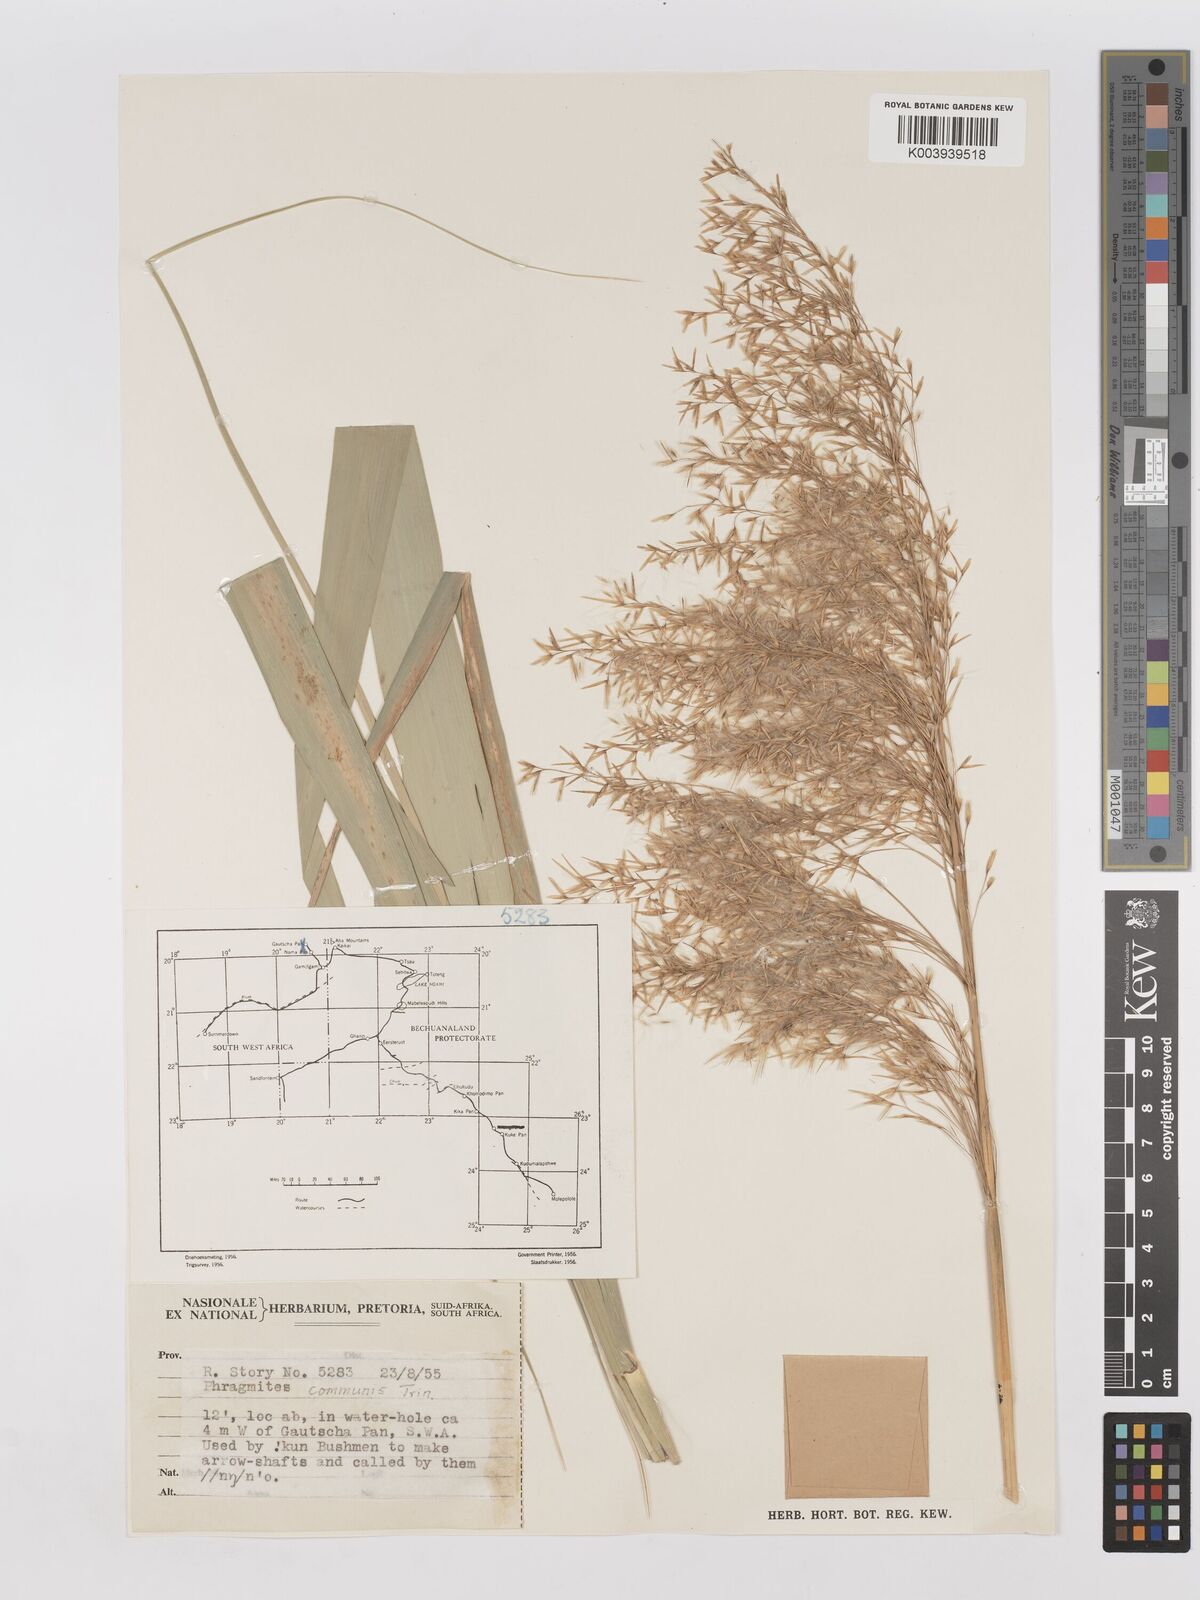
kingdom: Plantae
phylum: Tracheophyta
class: Liliopsida
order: Poales
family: Poaceae
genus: Phragmites
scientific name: Phragmites australis
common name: Common reed
